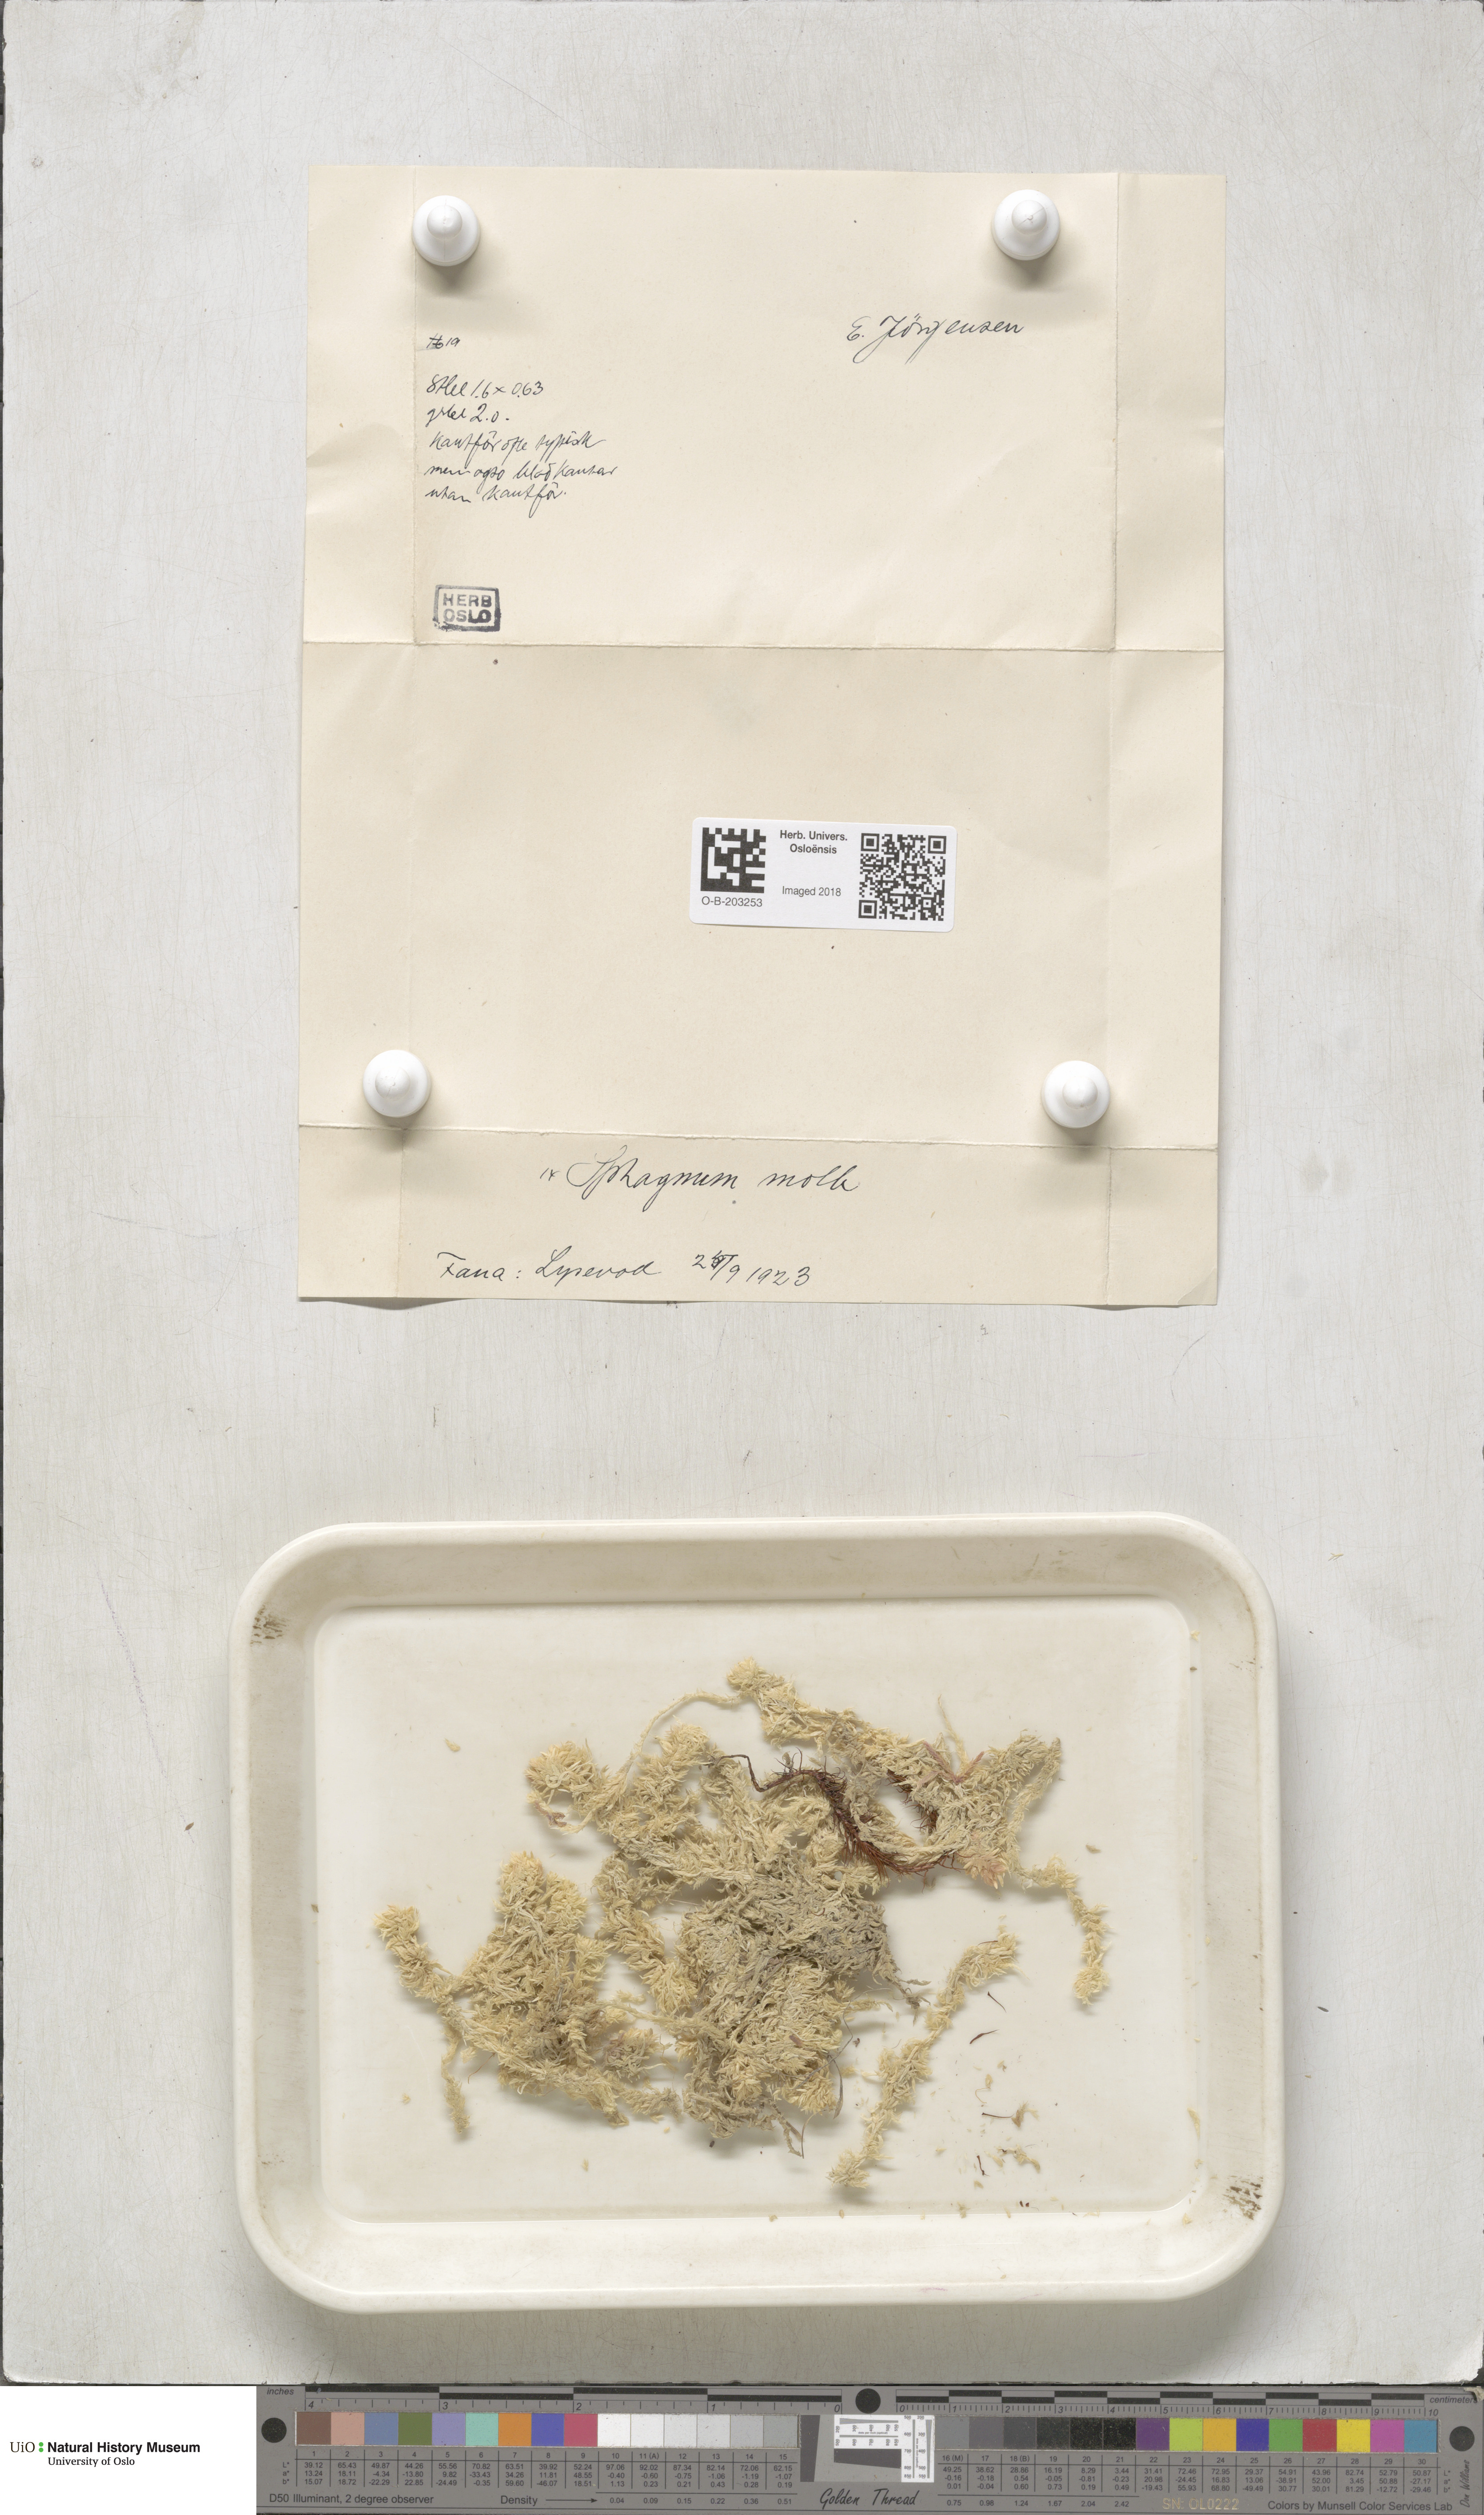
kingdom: Plantae
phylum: Bryophyta
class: Sphagnopsida
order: Sphagnales
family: Sphagnaceae
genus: Sphagnum
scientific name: Sphagnum molle
